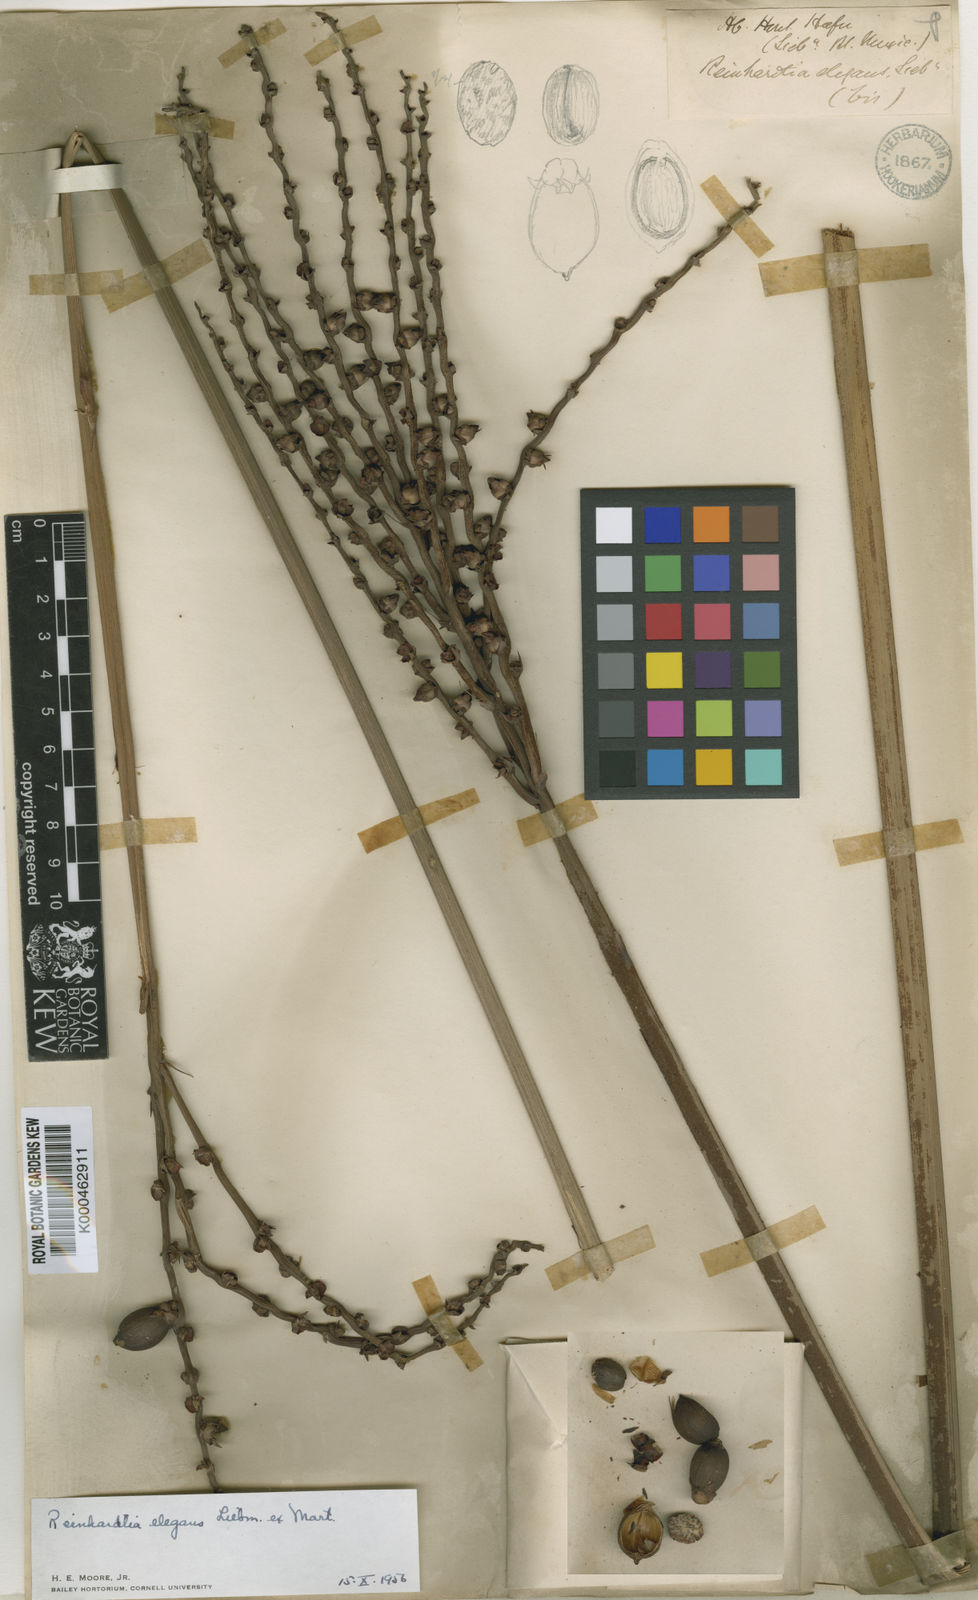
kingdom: Plantae
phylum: Tracheophyta
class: Liliopsida
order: Arecales
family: Arecaceae
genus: Reinhardtia
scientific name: Reinhardtia elegans
